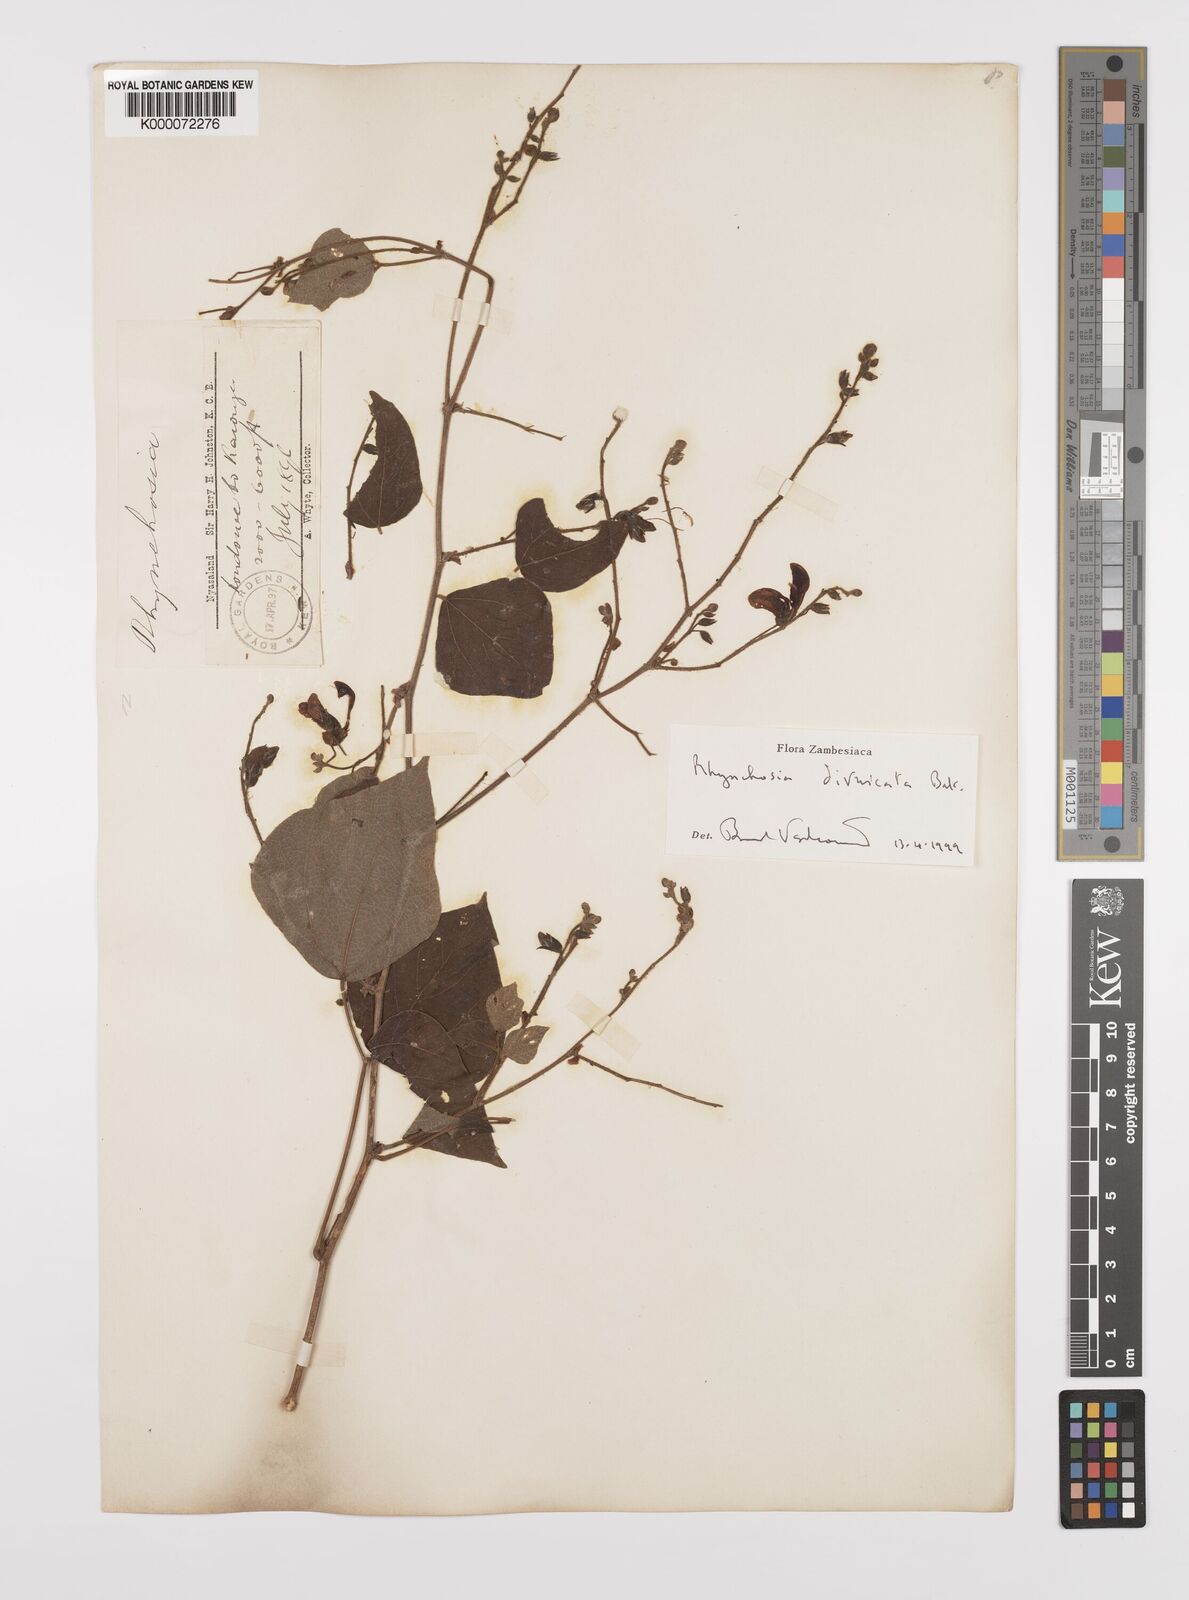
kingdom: Plantae
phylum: Tracheophyta
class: Magnoliopsida
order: Fabales
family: Fabaceae
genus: Rhynchosia
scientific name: Rhynchosia divaricata
